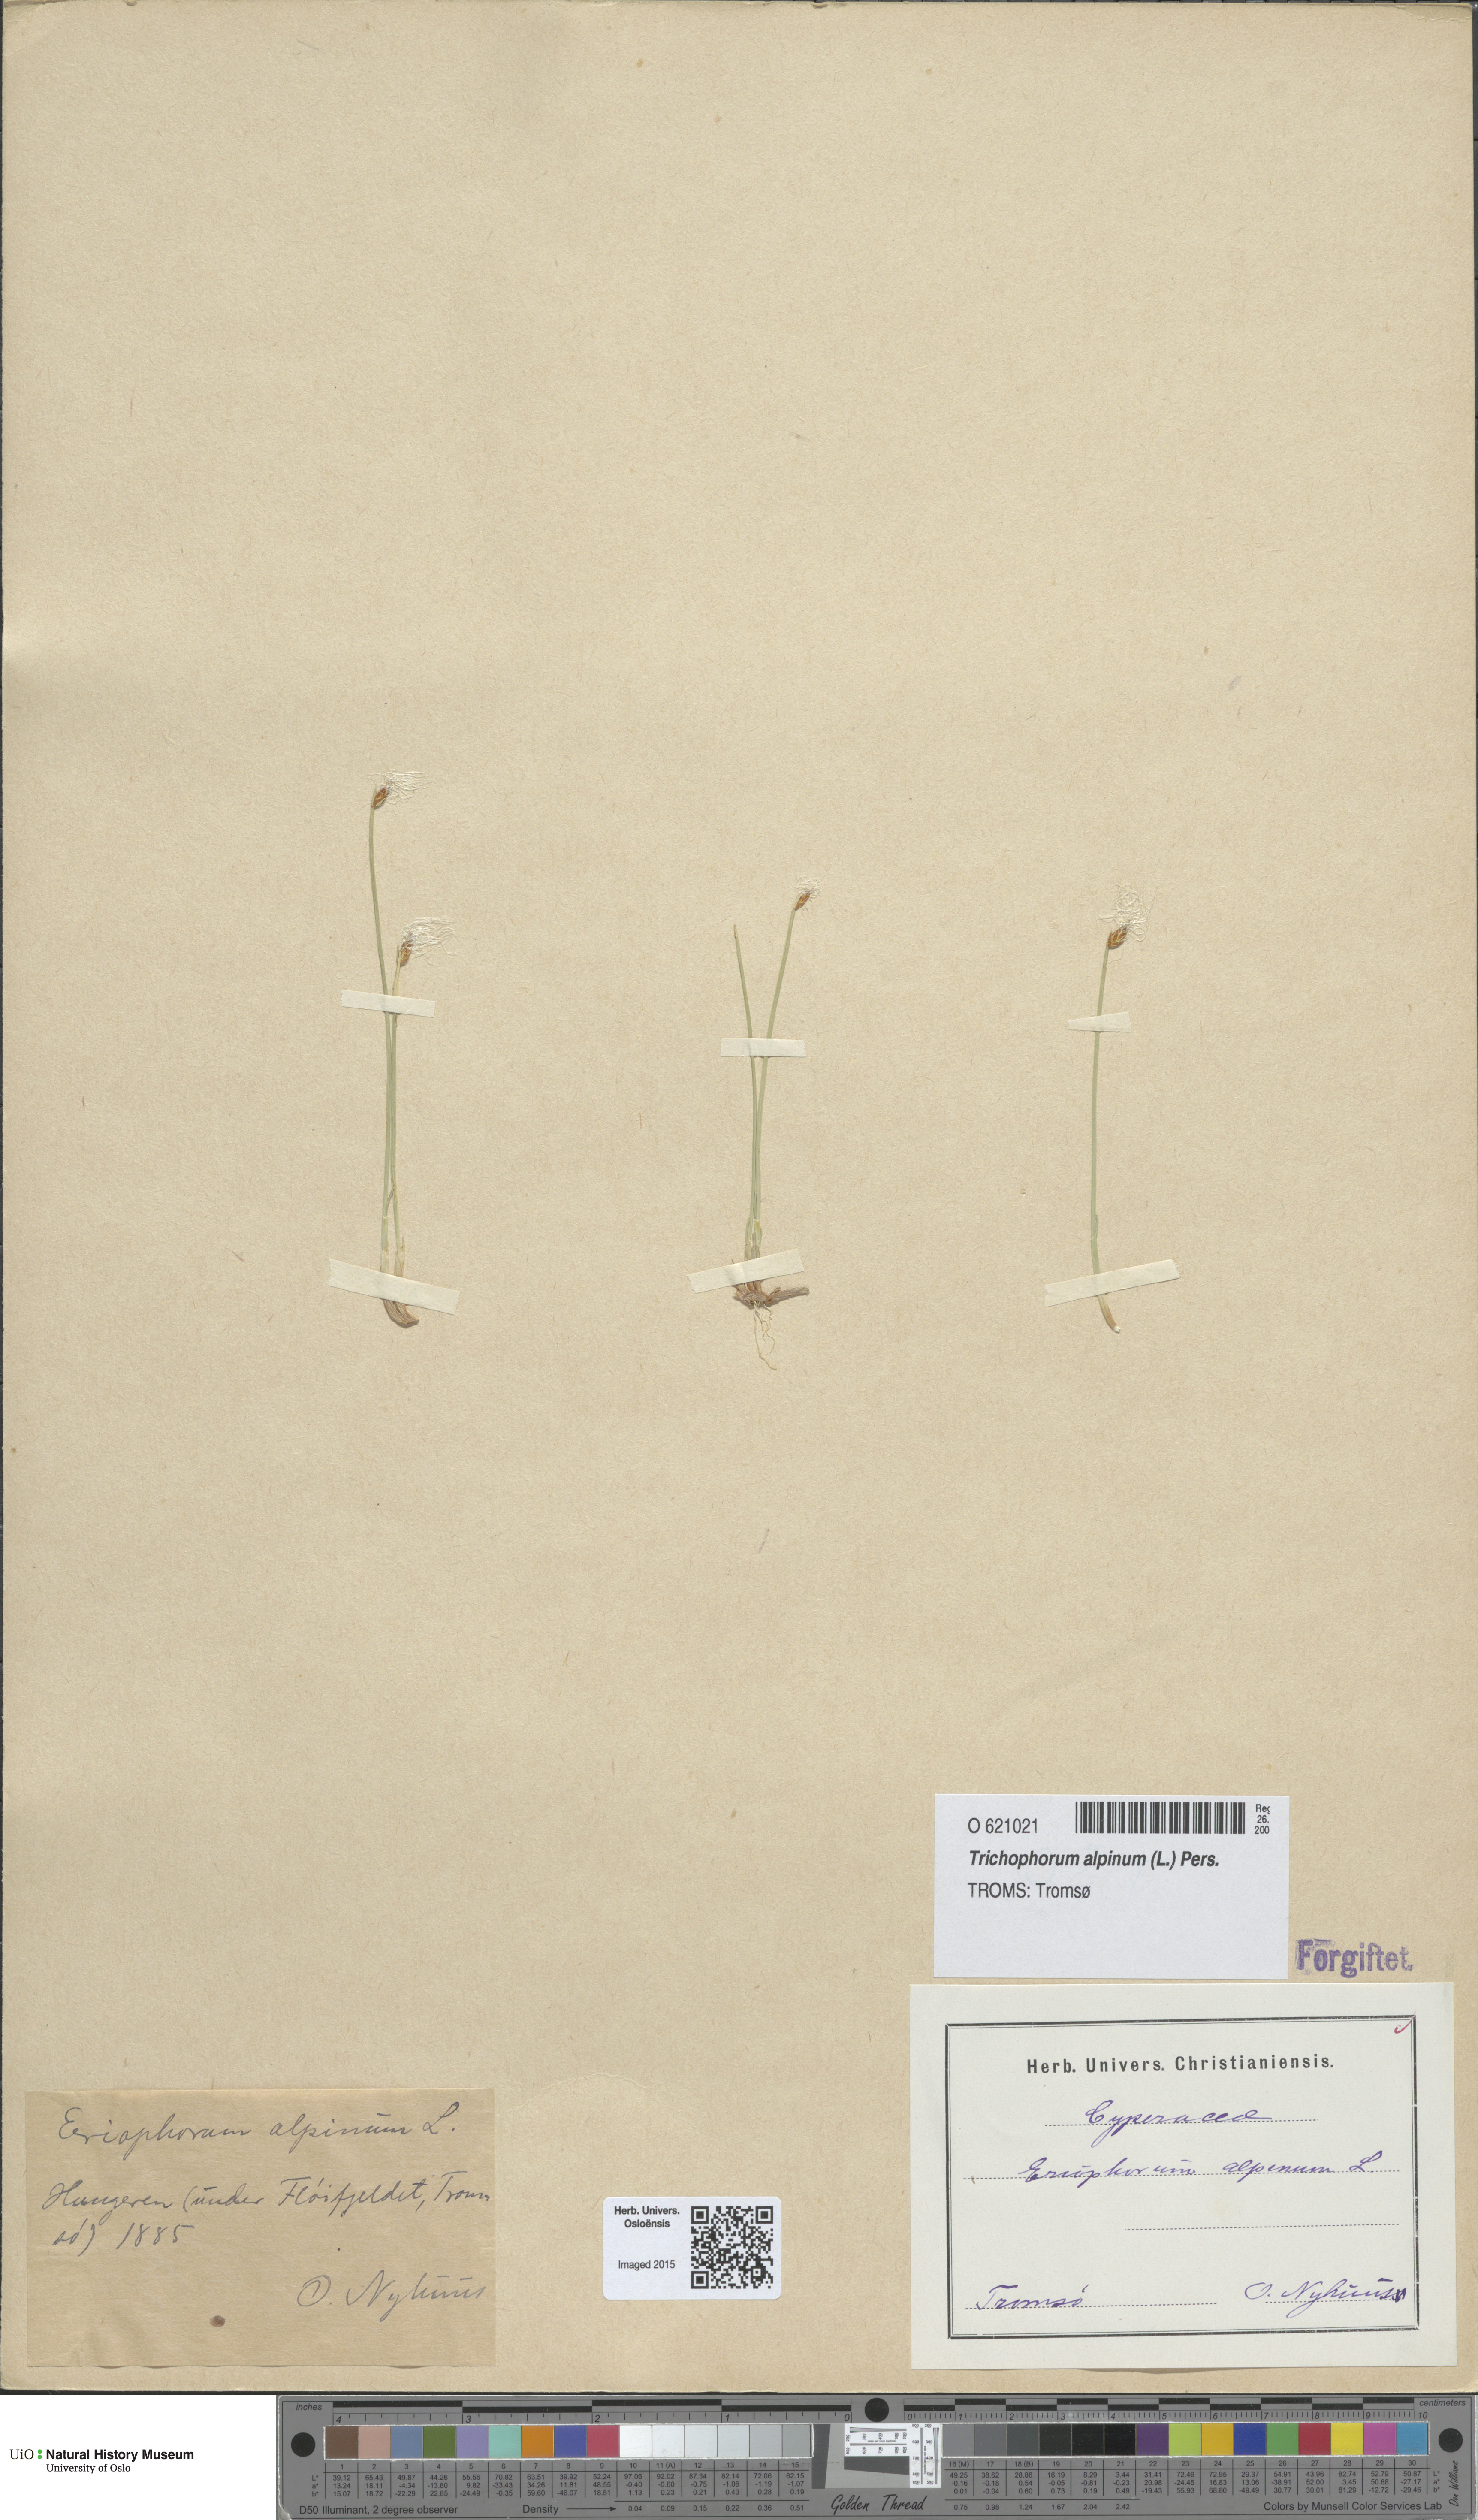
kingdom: Plantae
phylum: Tracheophyta
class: Liliopsida
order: Poales
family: Cyperaceae
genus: Trichophorum
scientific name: Trichophorum alpinum
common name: Alpine bulrush
